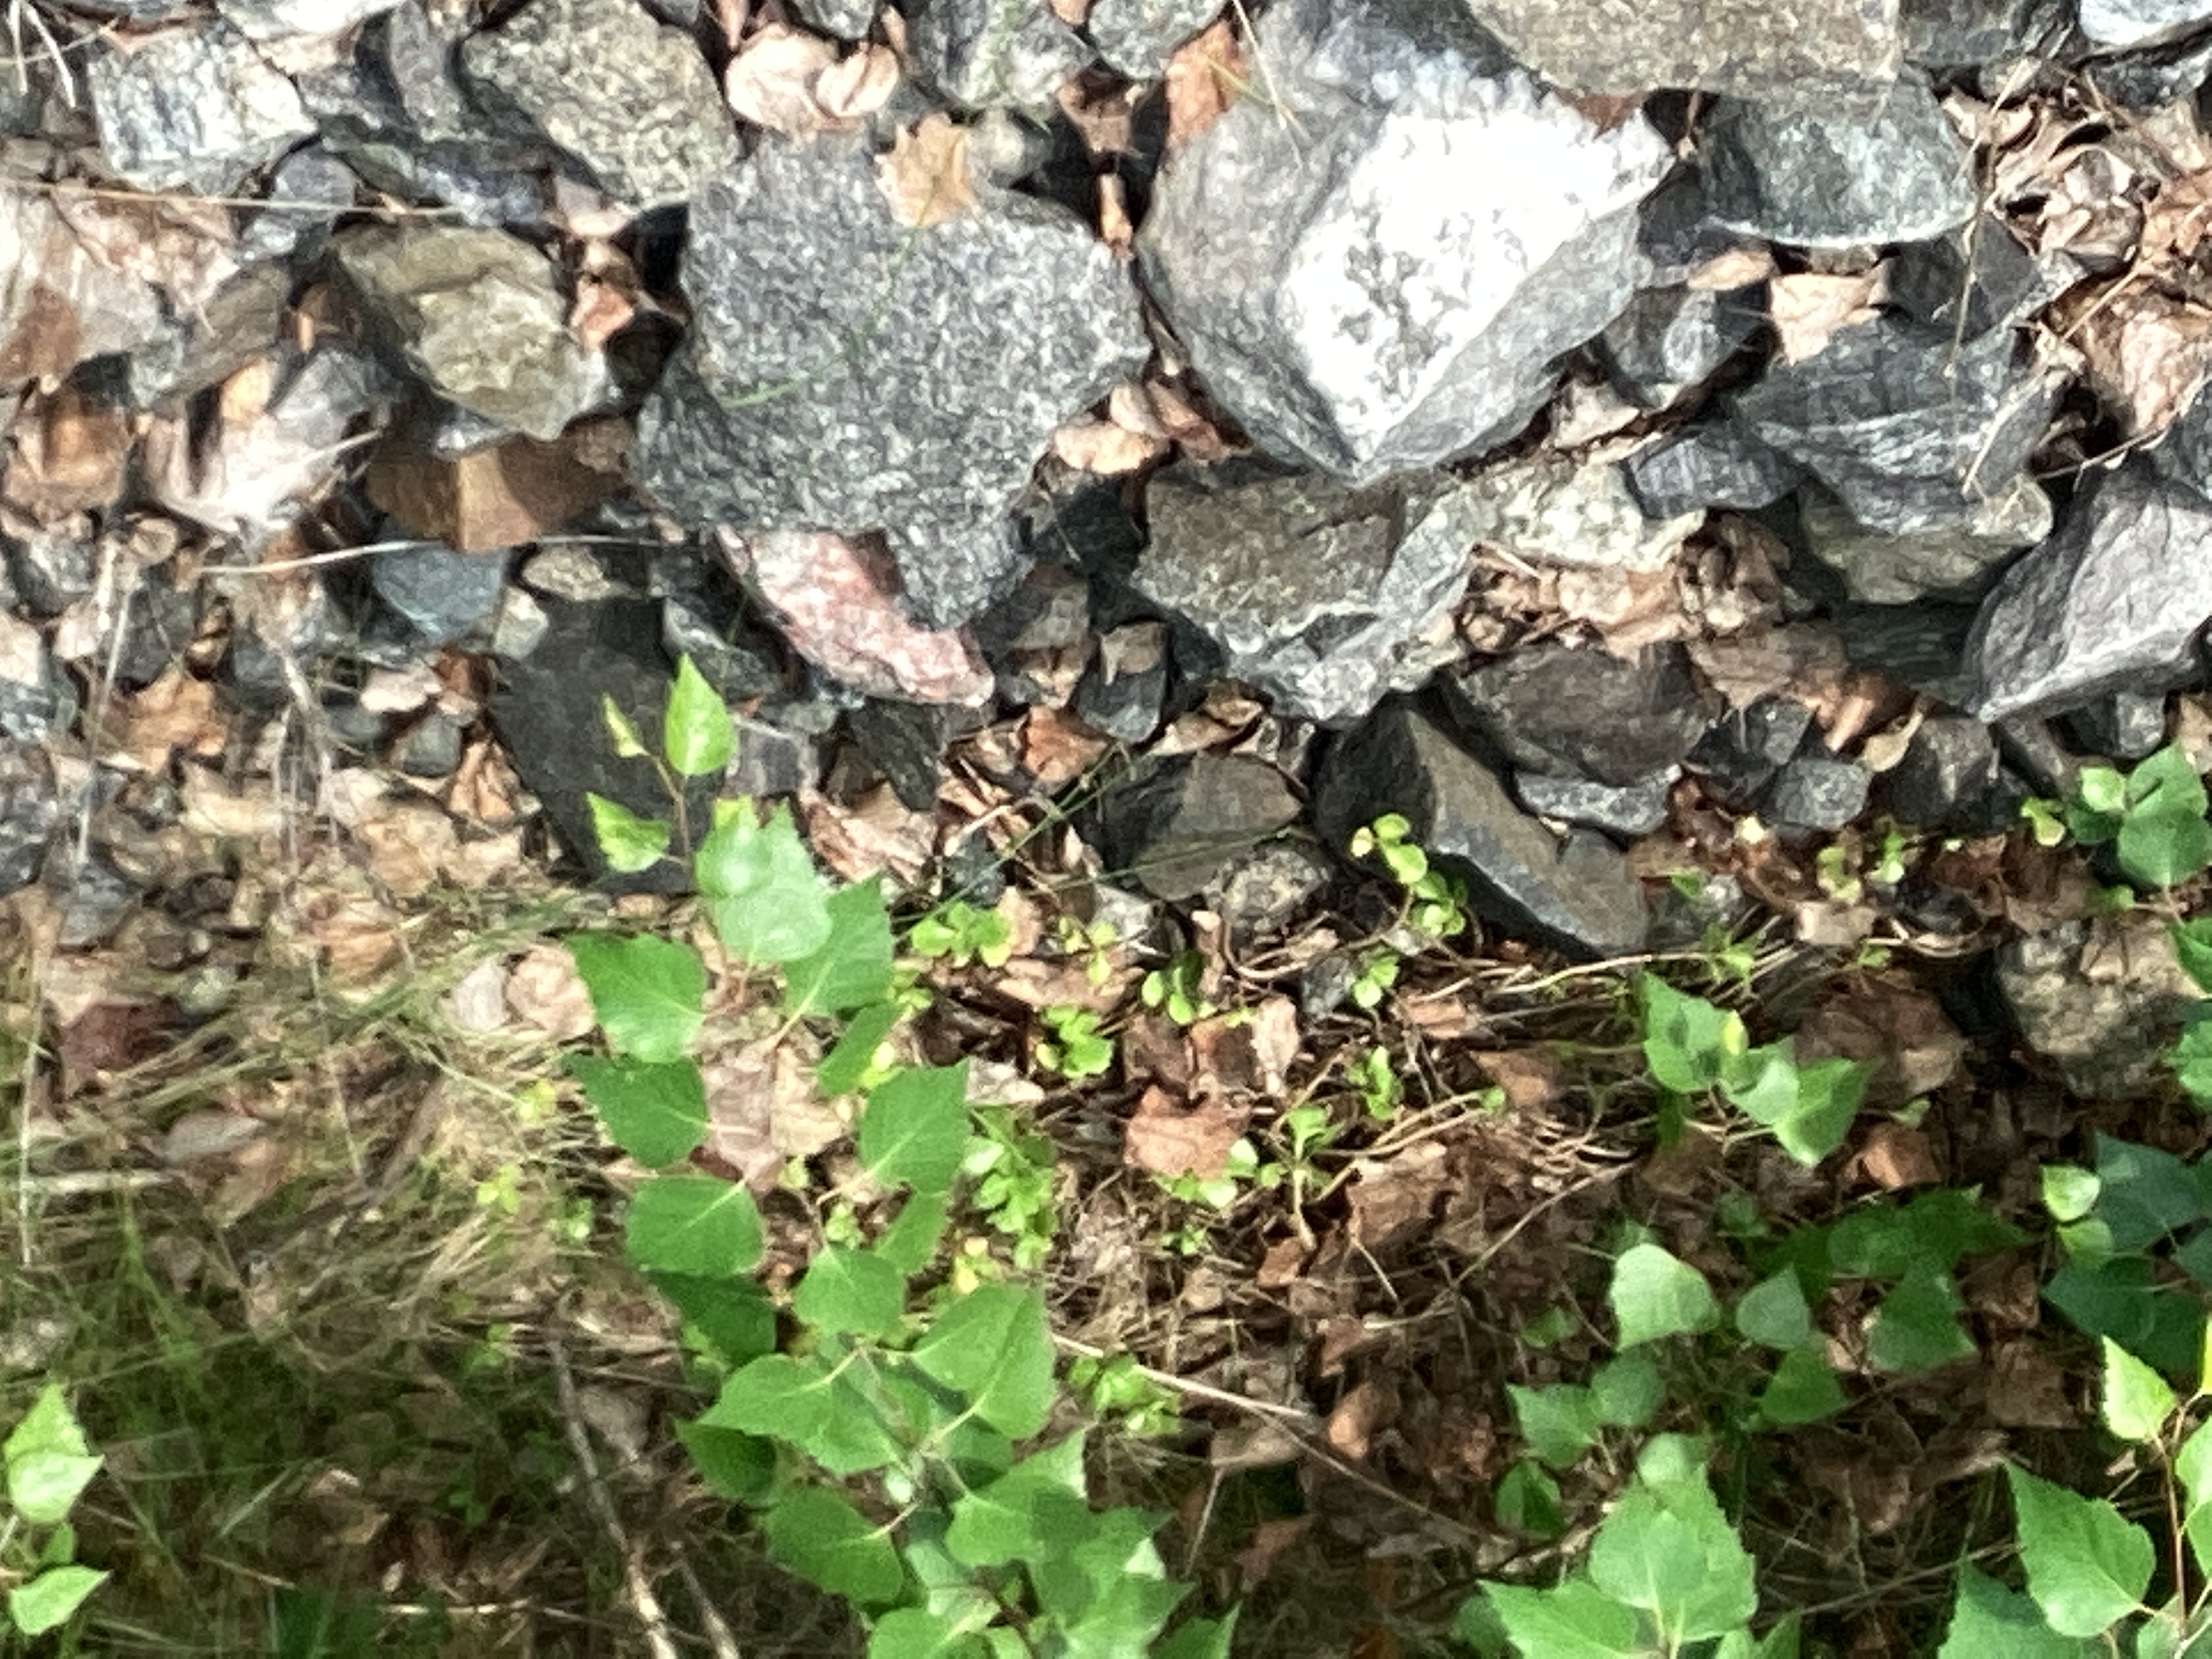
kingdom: Plantae
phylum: Tracheophyta
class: Magnoliopsida
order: Saxifragales
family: Crassulaceae
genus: Phedimus
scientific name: Phedimus spurius
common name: gravbergknapp
